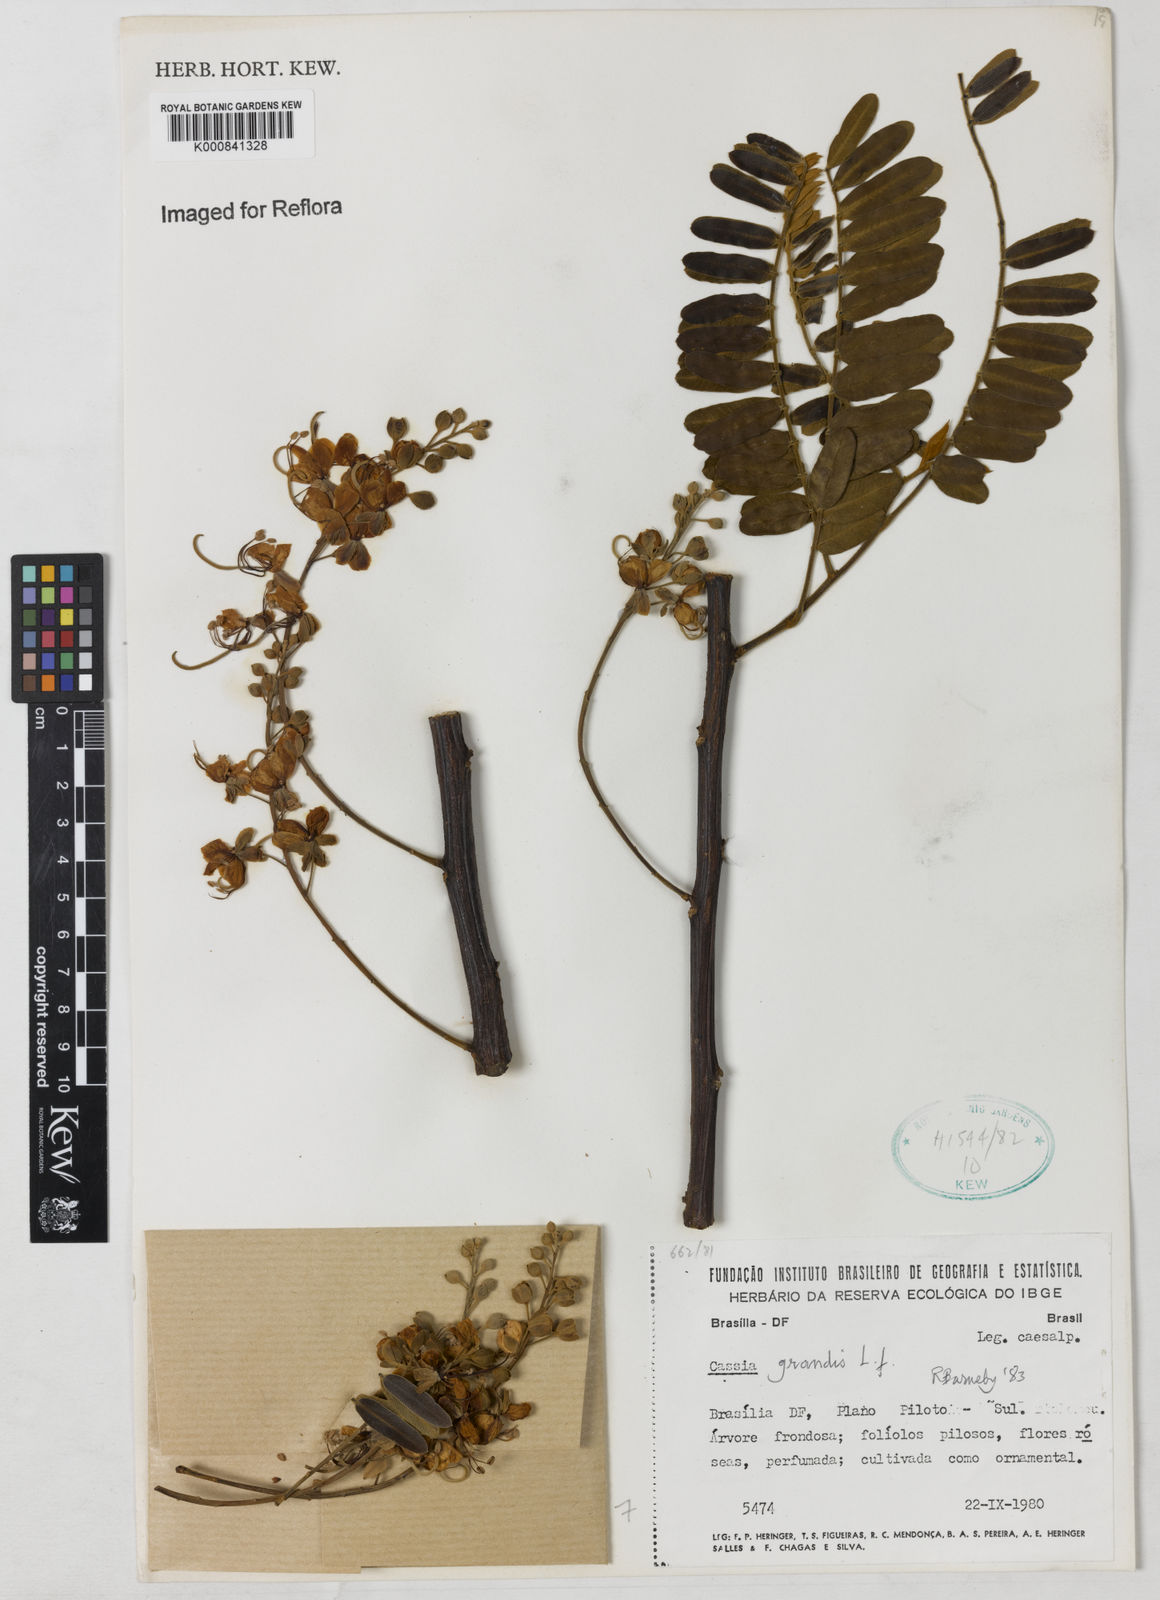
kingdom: Plantae
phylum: Tracheophyta
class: Magnoliopsida
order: Fabales
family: Fabaceae
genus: Cassia
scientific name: Cassia grandis
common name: Appleblossom cassia
